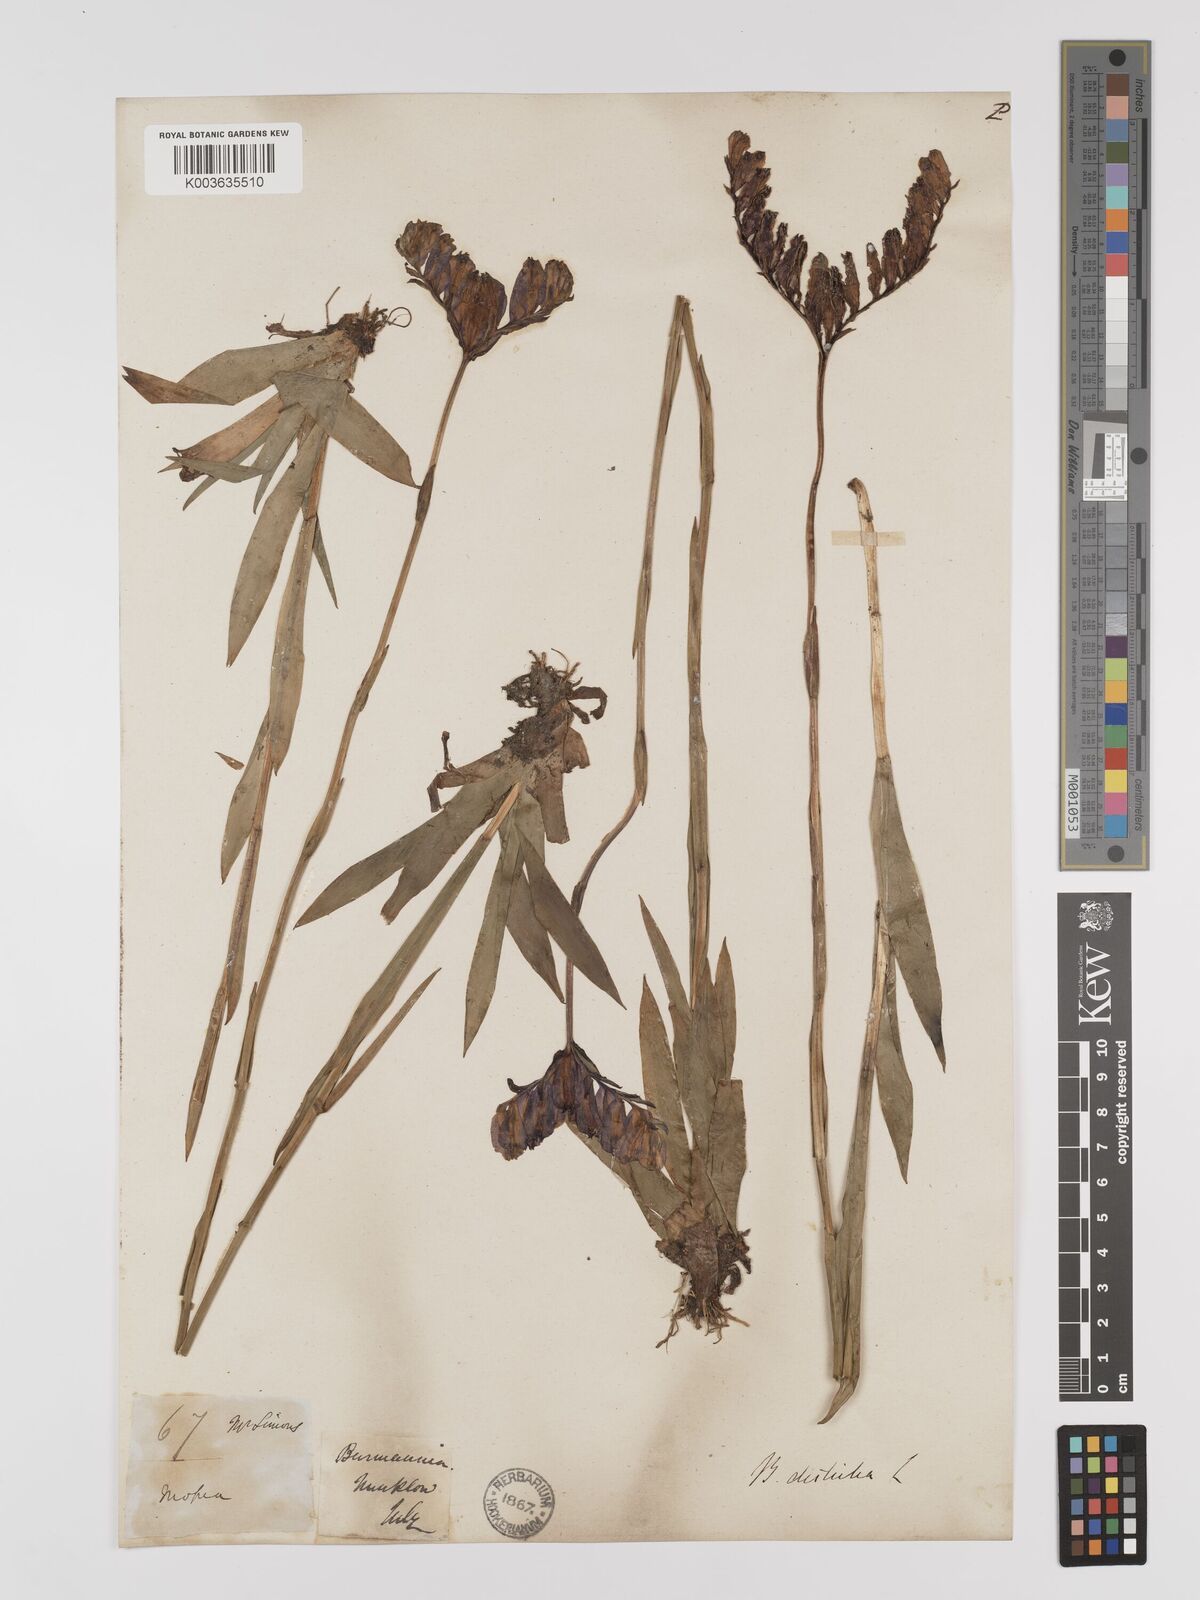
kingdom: Plantae
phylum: Tracheophyta
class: Liliopsida
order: Dioscoreales
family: Burmanniaceae
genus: Burmannia
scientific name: Burmannia disticha
